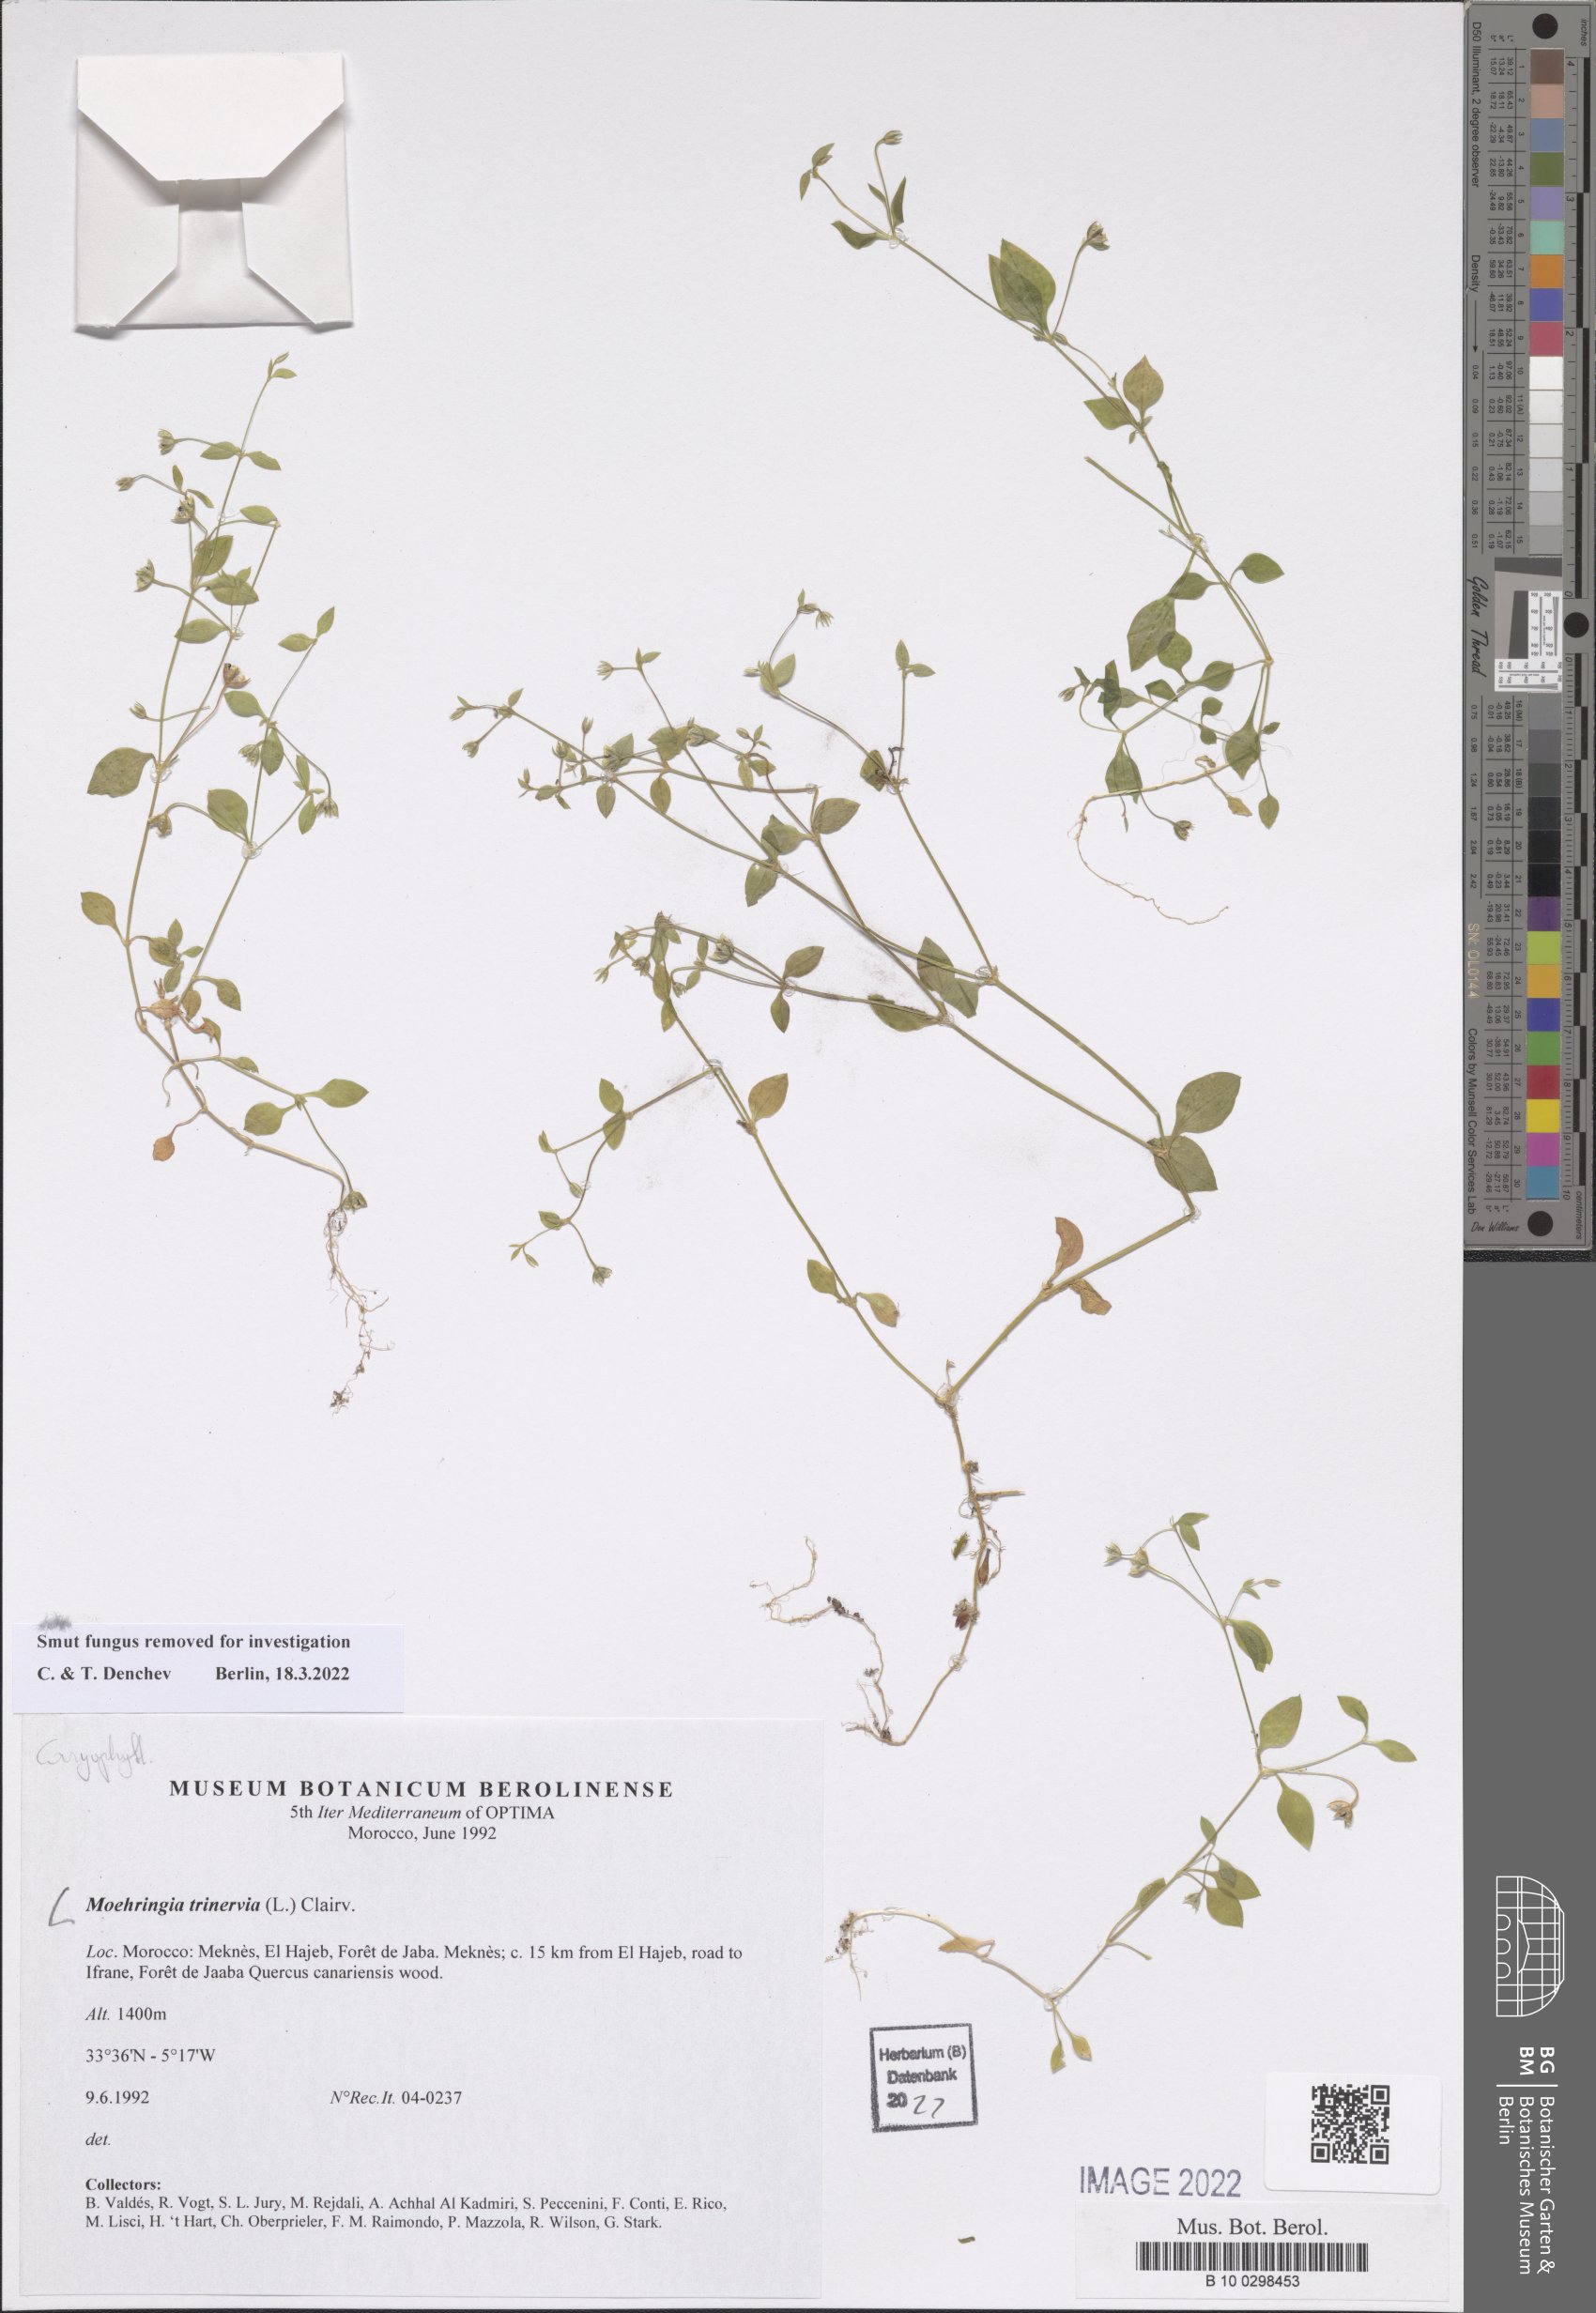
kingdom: Plantae
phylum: Tracheophyta
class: Magnoliopsida
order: Caryophyllales
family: Caryophyllaceae
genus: Moehringia
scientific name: Moehringia trinervia
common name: Three-nerved sandwort
